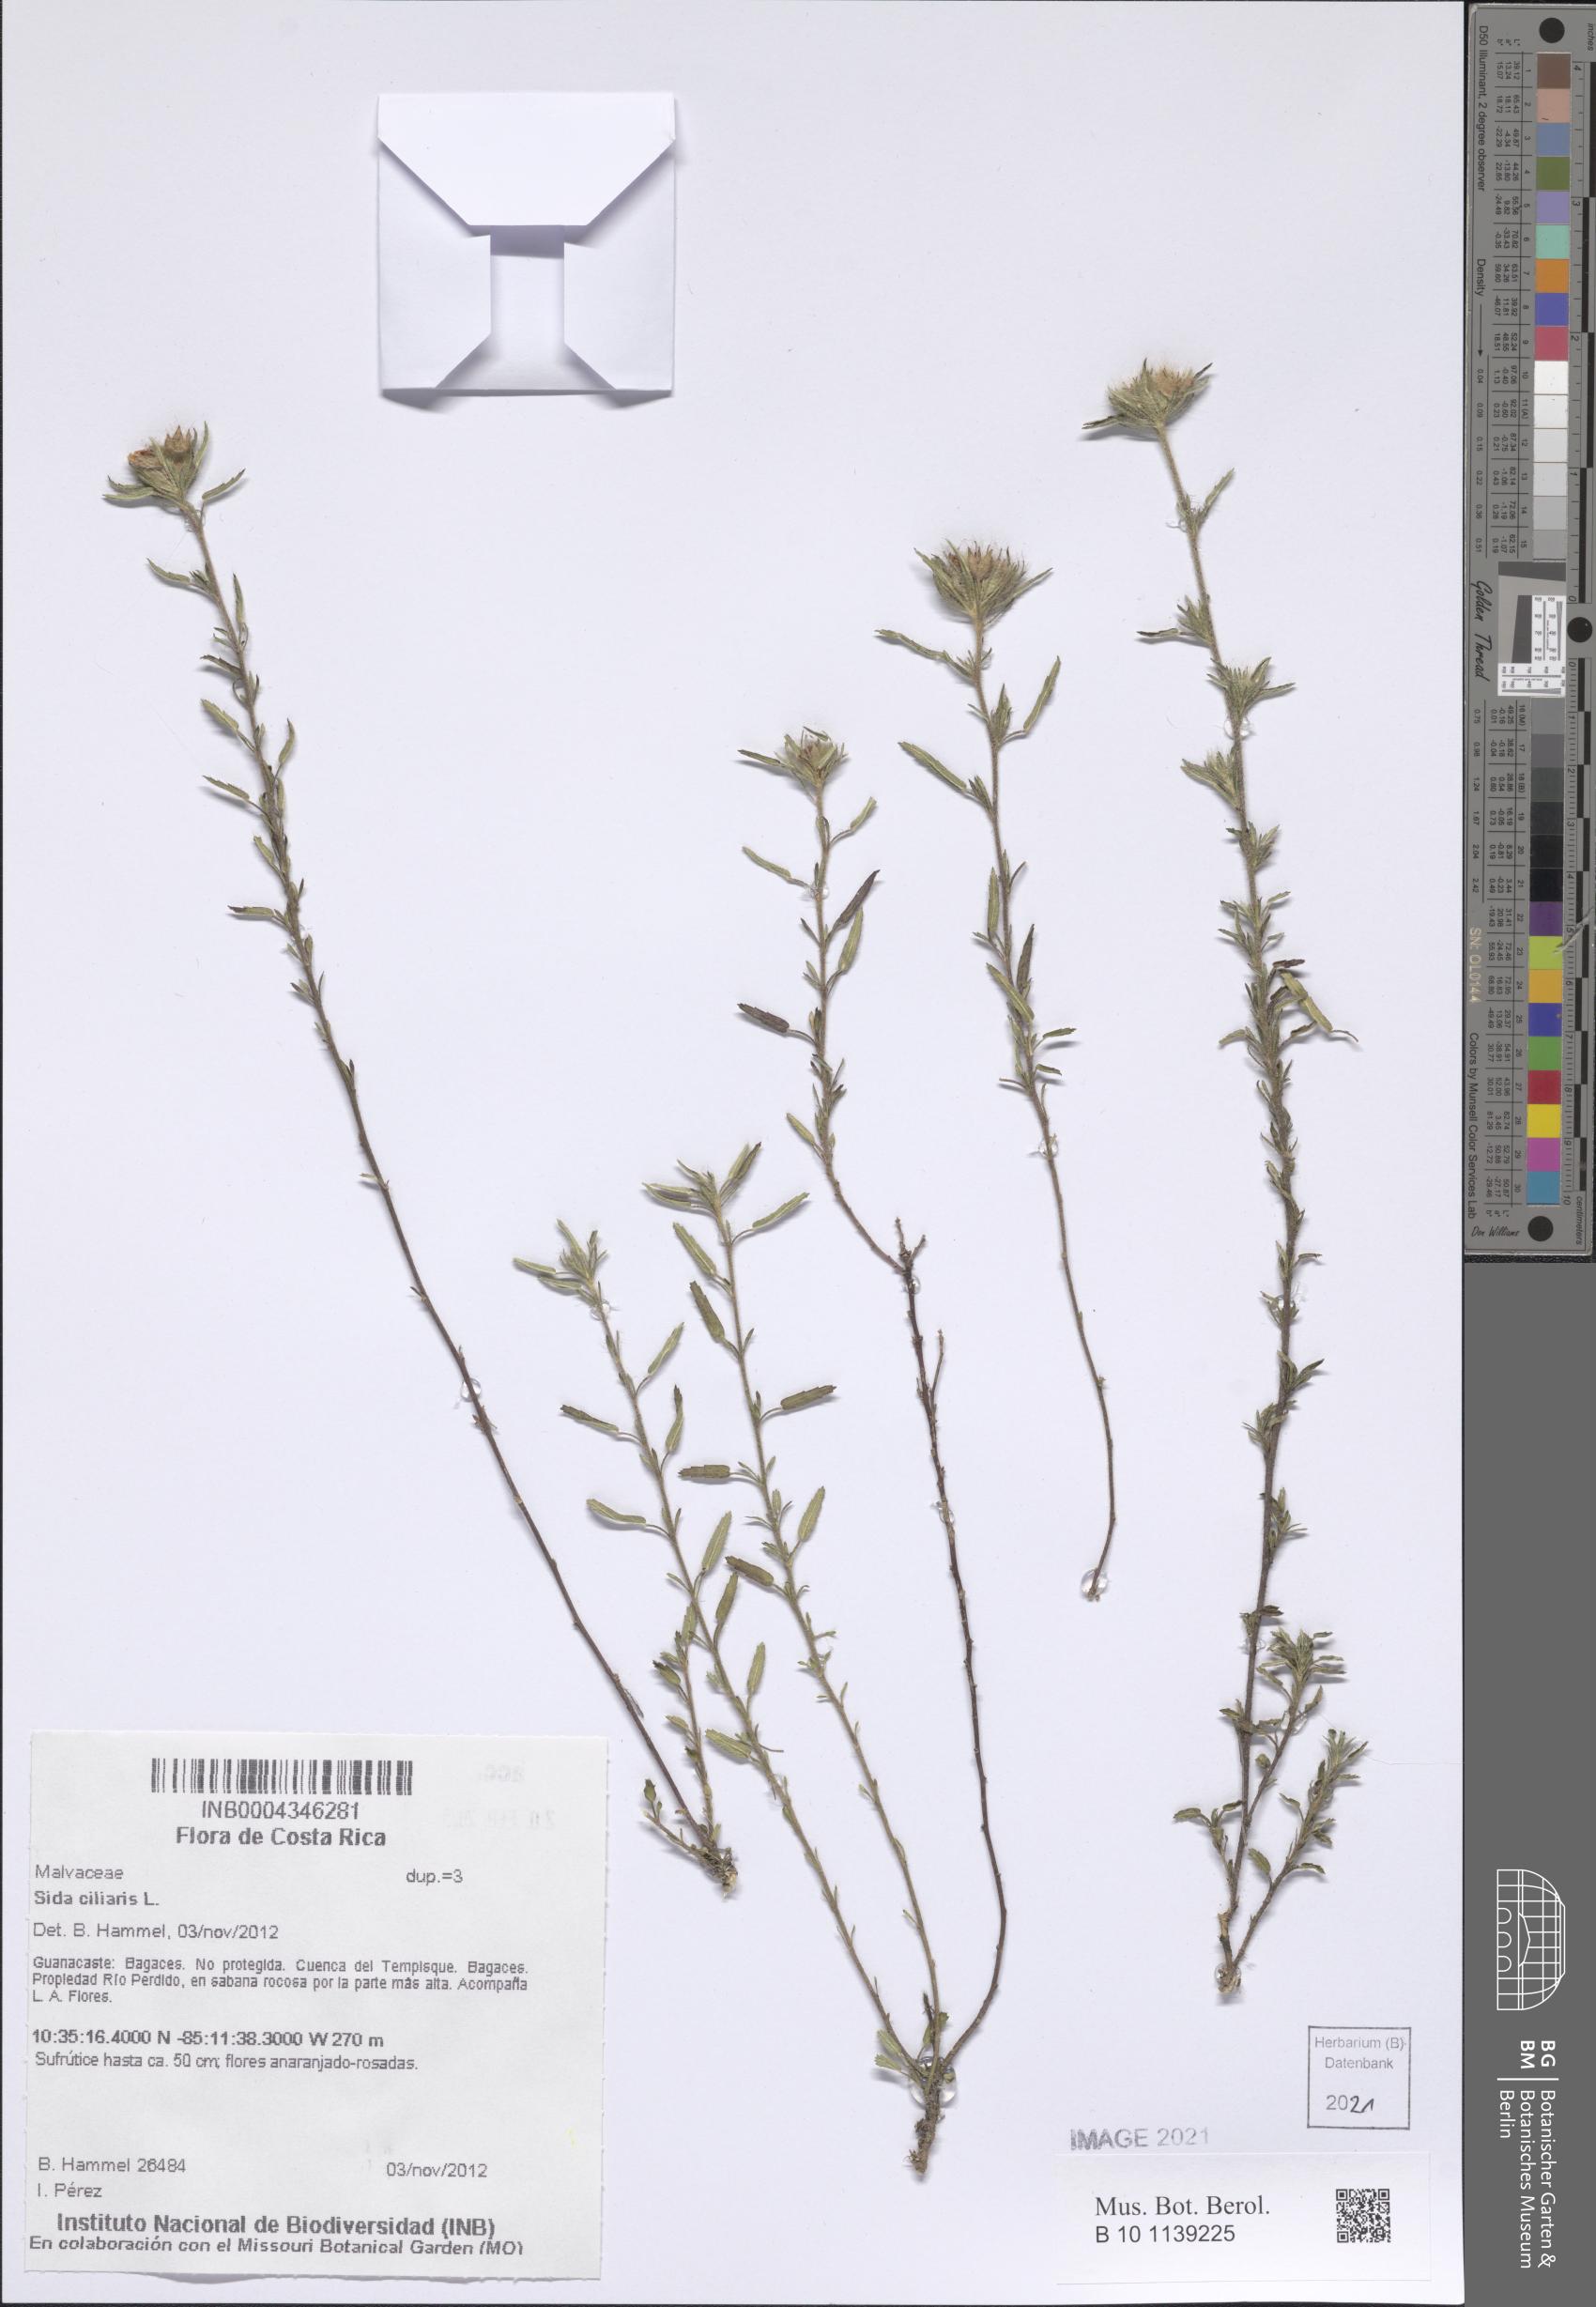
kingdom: Plantae
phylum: Tracheophyta
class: Magnoliopsida
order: Malvales
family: Malvaceae
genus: Sida
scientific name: Sida ciliaris
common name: Bracted fanpetals
